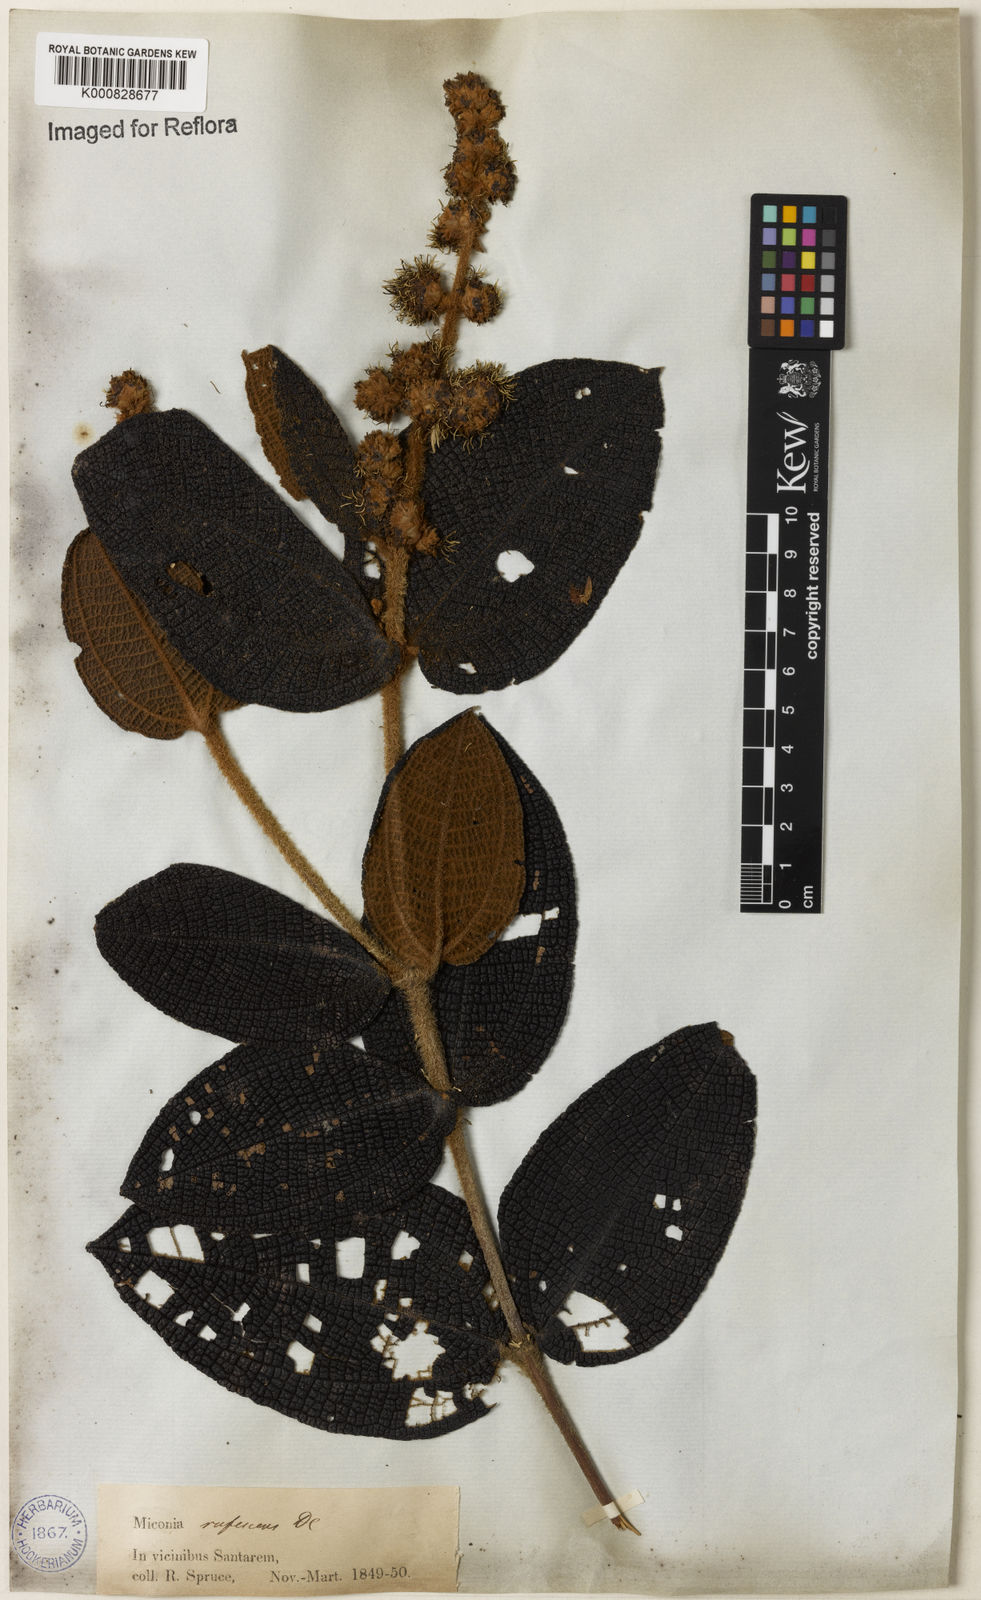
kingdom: Plantae
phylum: Tracheophyta
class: Magnoliopsida
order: Myrtales
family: Melastomataceae
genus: Miconia
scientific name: Miconia rufescens
